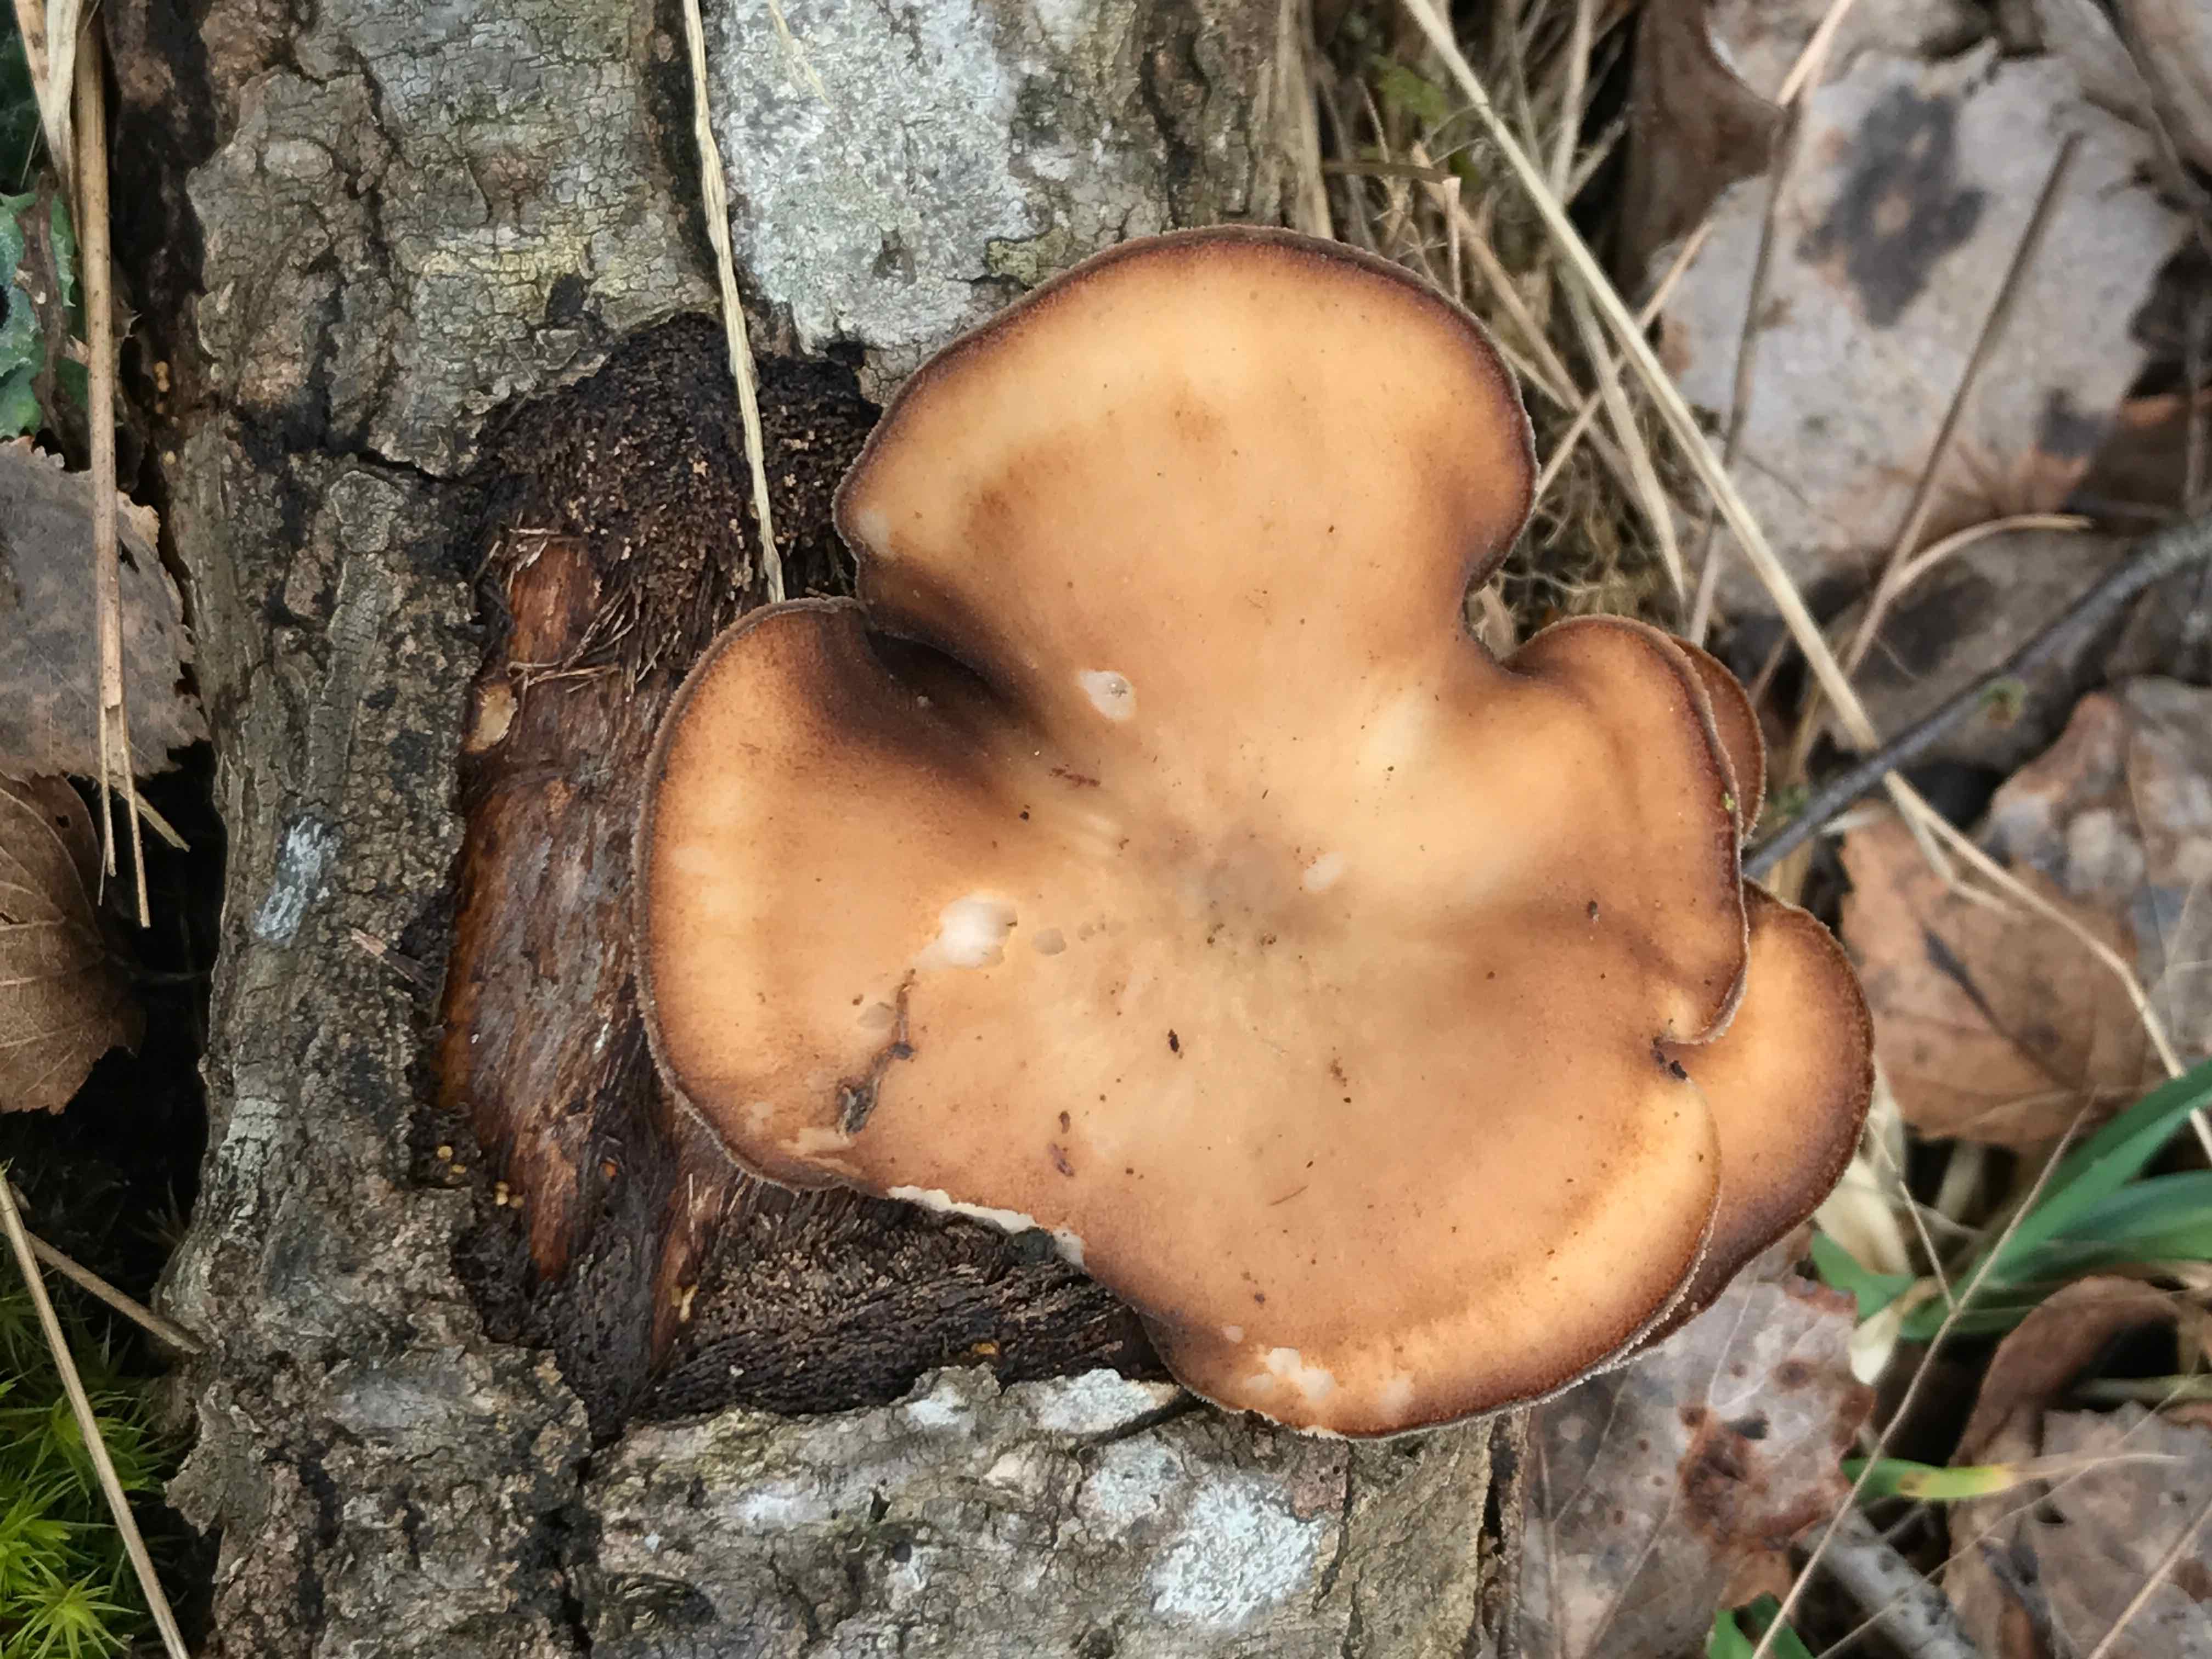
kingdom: Fungi
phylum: Basidiomycota
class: Agaricomycetes
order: Polyporales
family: Polyporaceae
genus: Lentinus
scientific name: Lentinus brumalis
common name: vinter-stilkporesvamp
